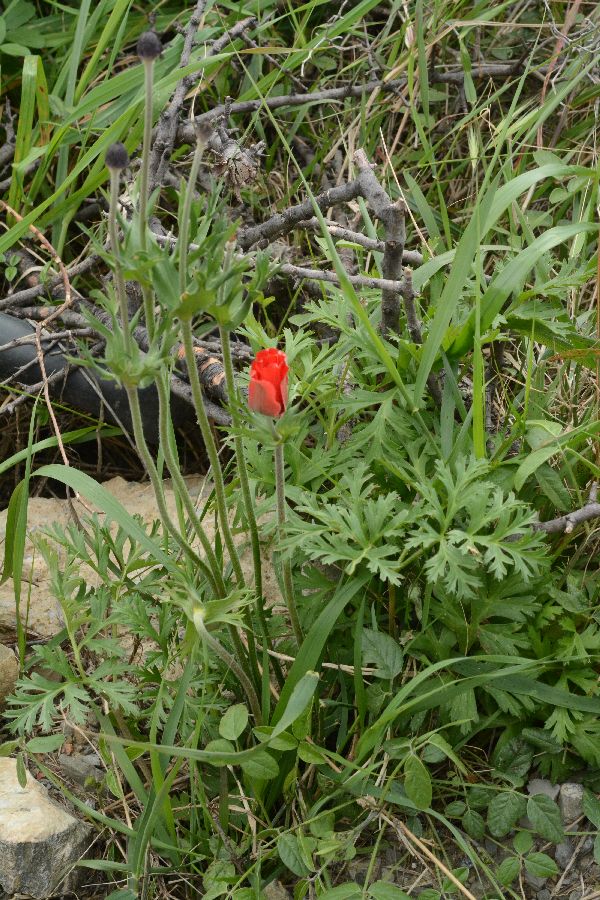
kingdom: Plantae
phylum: Tracheophyta
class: Magnoliopsida
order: Ranunculales
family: Ranunculaceae
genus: Anemone
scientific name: Anemone coronaria
